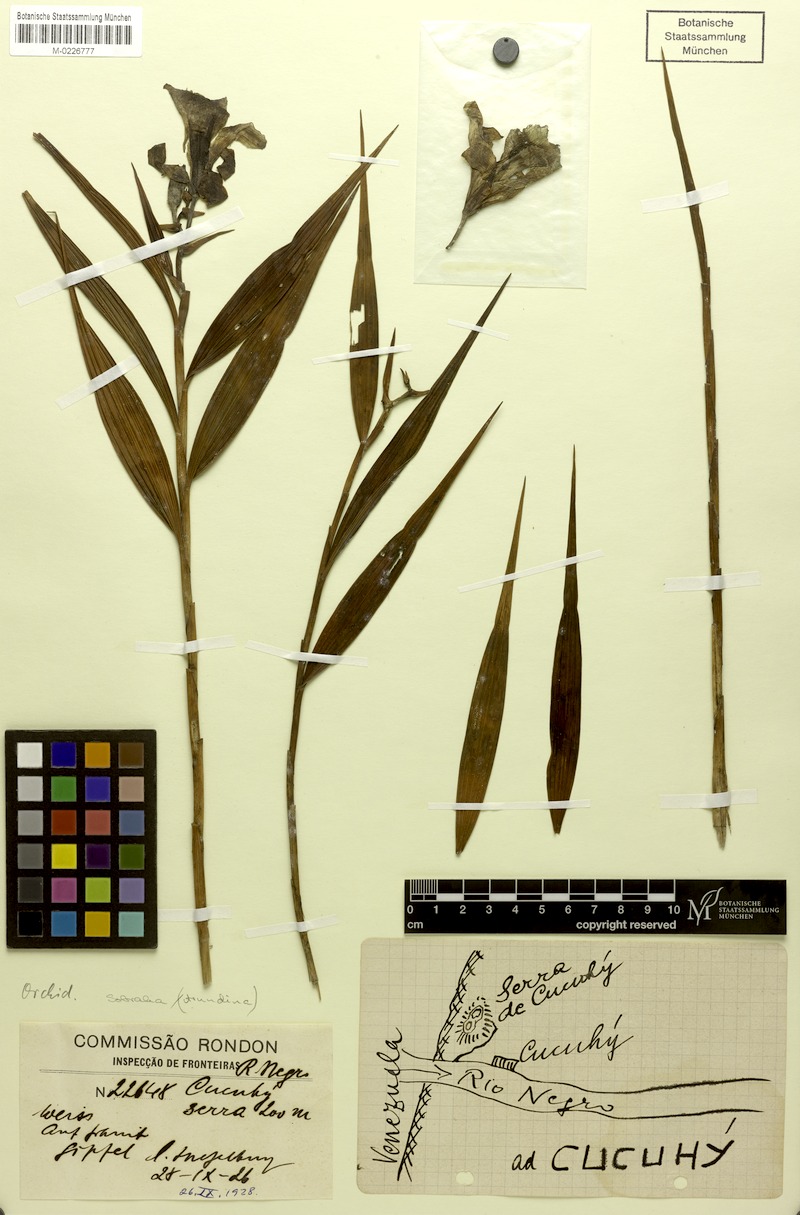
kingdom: Plantae
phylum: Tracheophyta
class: Liliopsida
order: Asparagales
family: Orchidaceae
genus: Sobralia
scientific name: Sobralia
